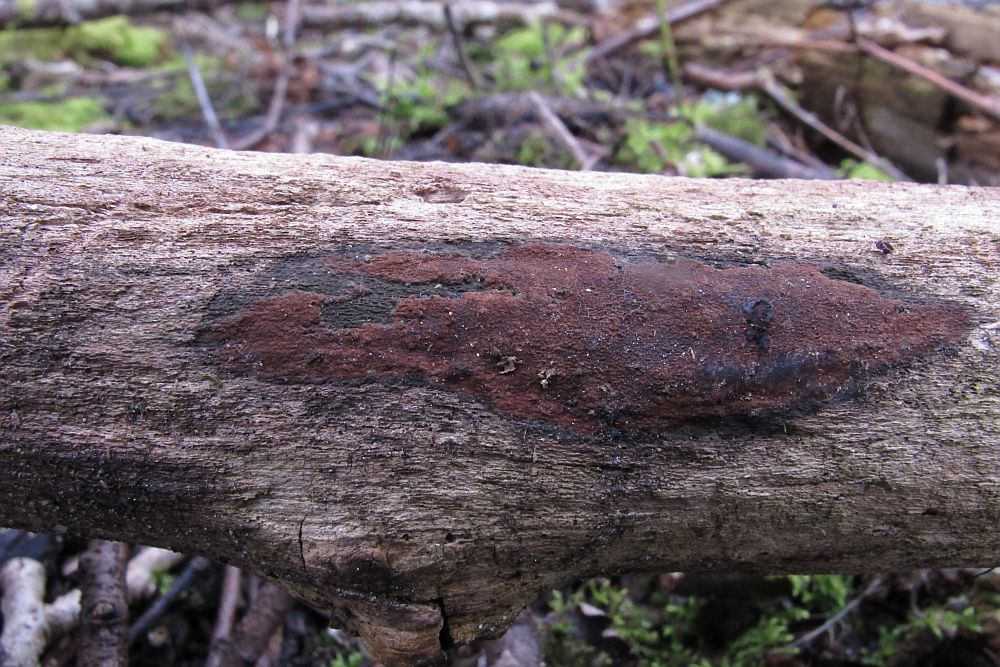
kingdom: Fungi
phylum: Ascomycota
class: Sordariomycetes
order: Xylariales
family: Hypoxylaceae
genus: Hypoxylon
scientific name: Hypoxylon macrocarpum
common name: skorpe-kulbær
